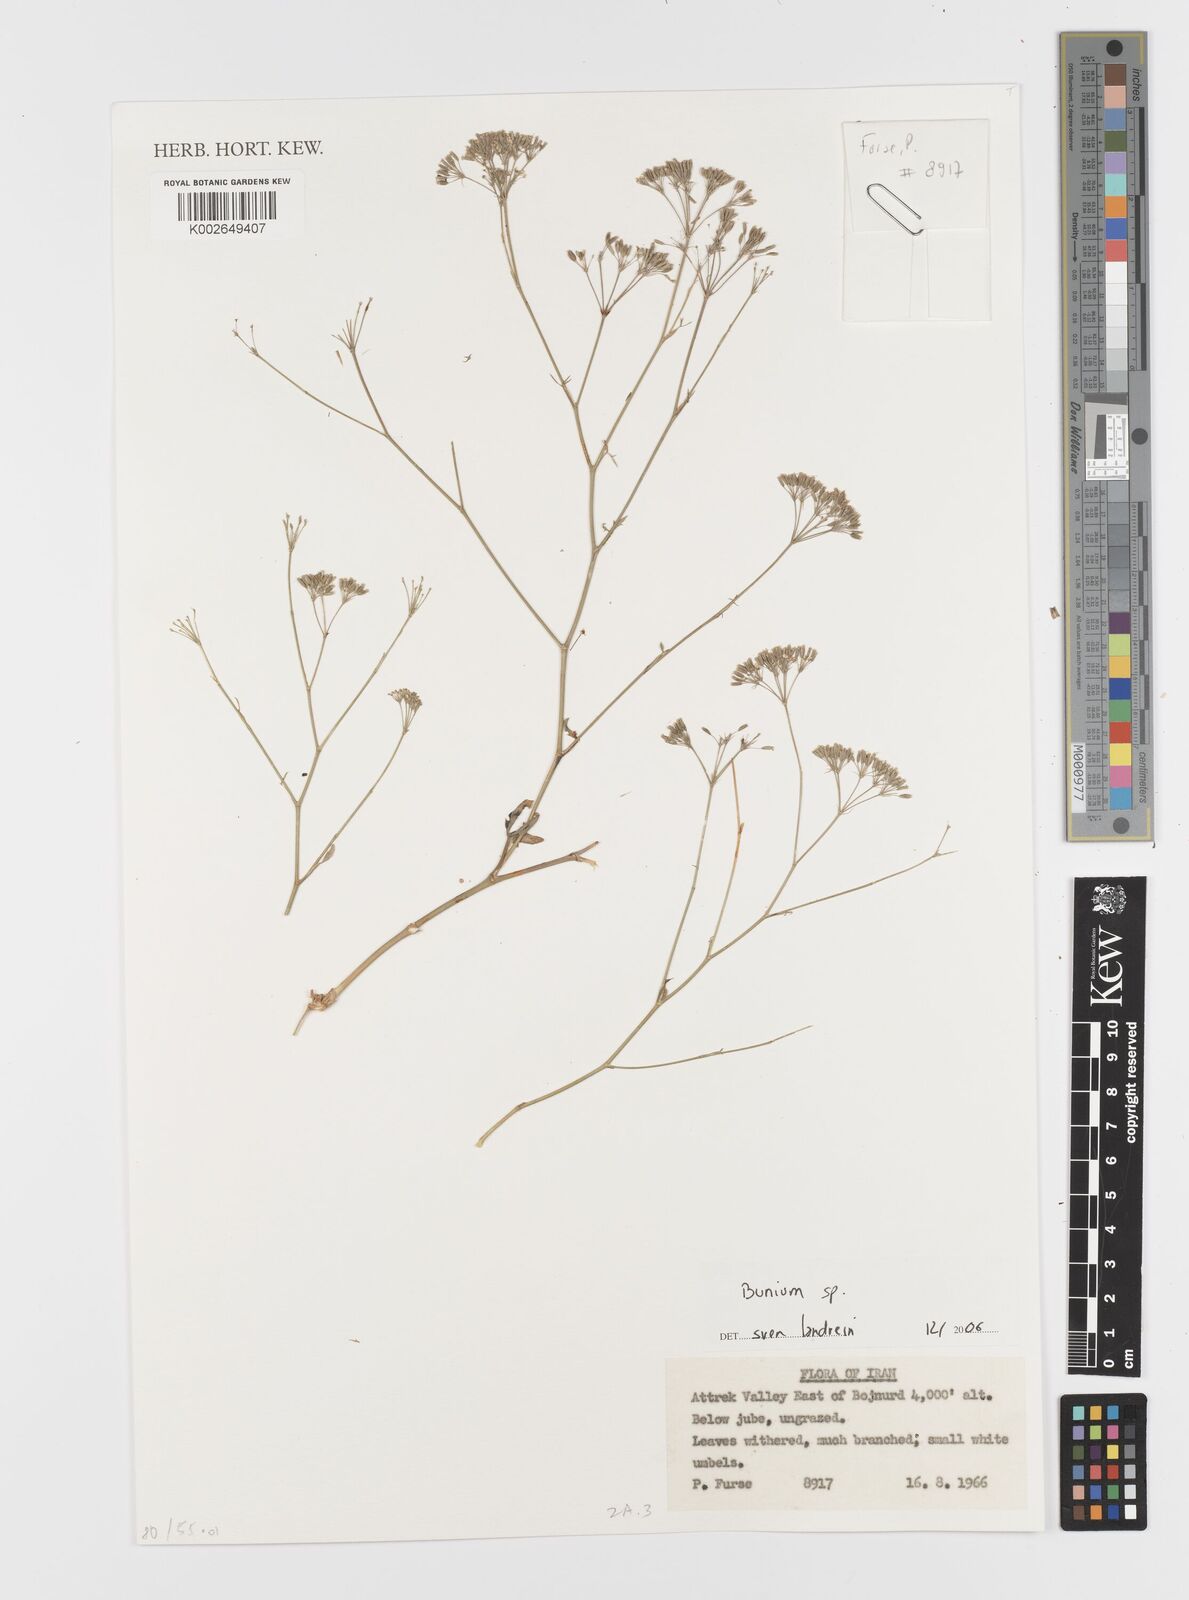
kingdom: Plantae
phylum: Tracheophyta
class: Magnoliopsida
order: Apiales
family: Apiaceae
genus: Bunium
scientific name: Bunium
